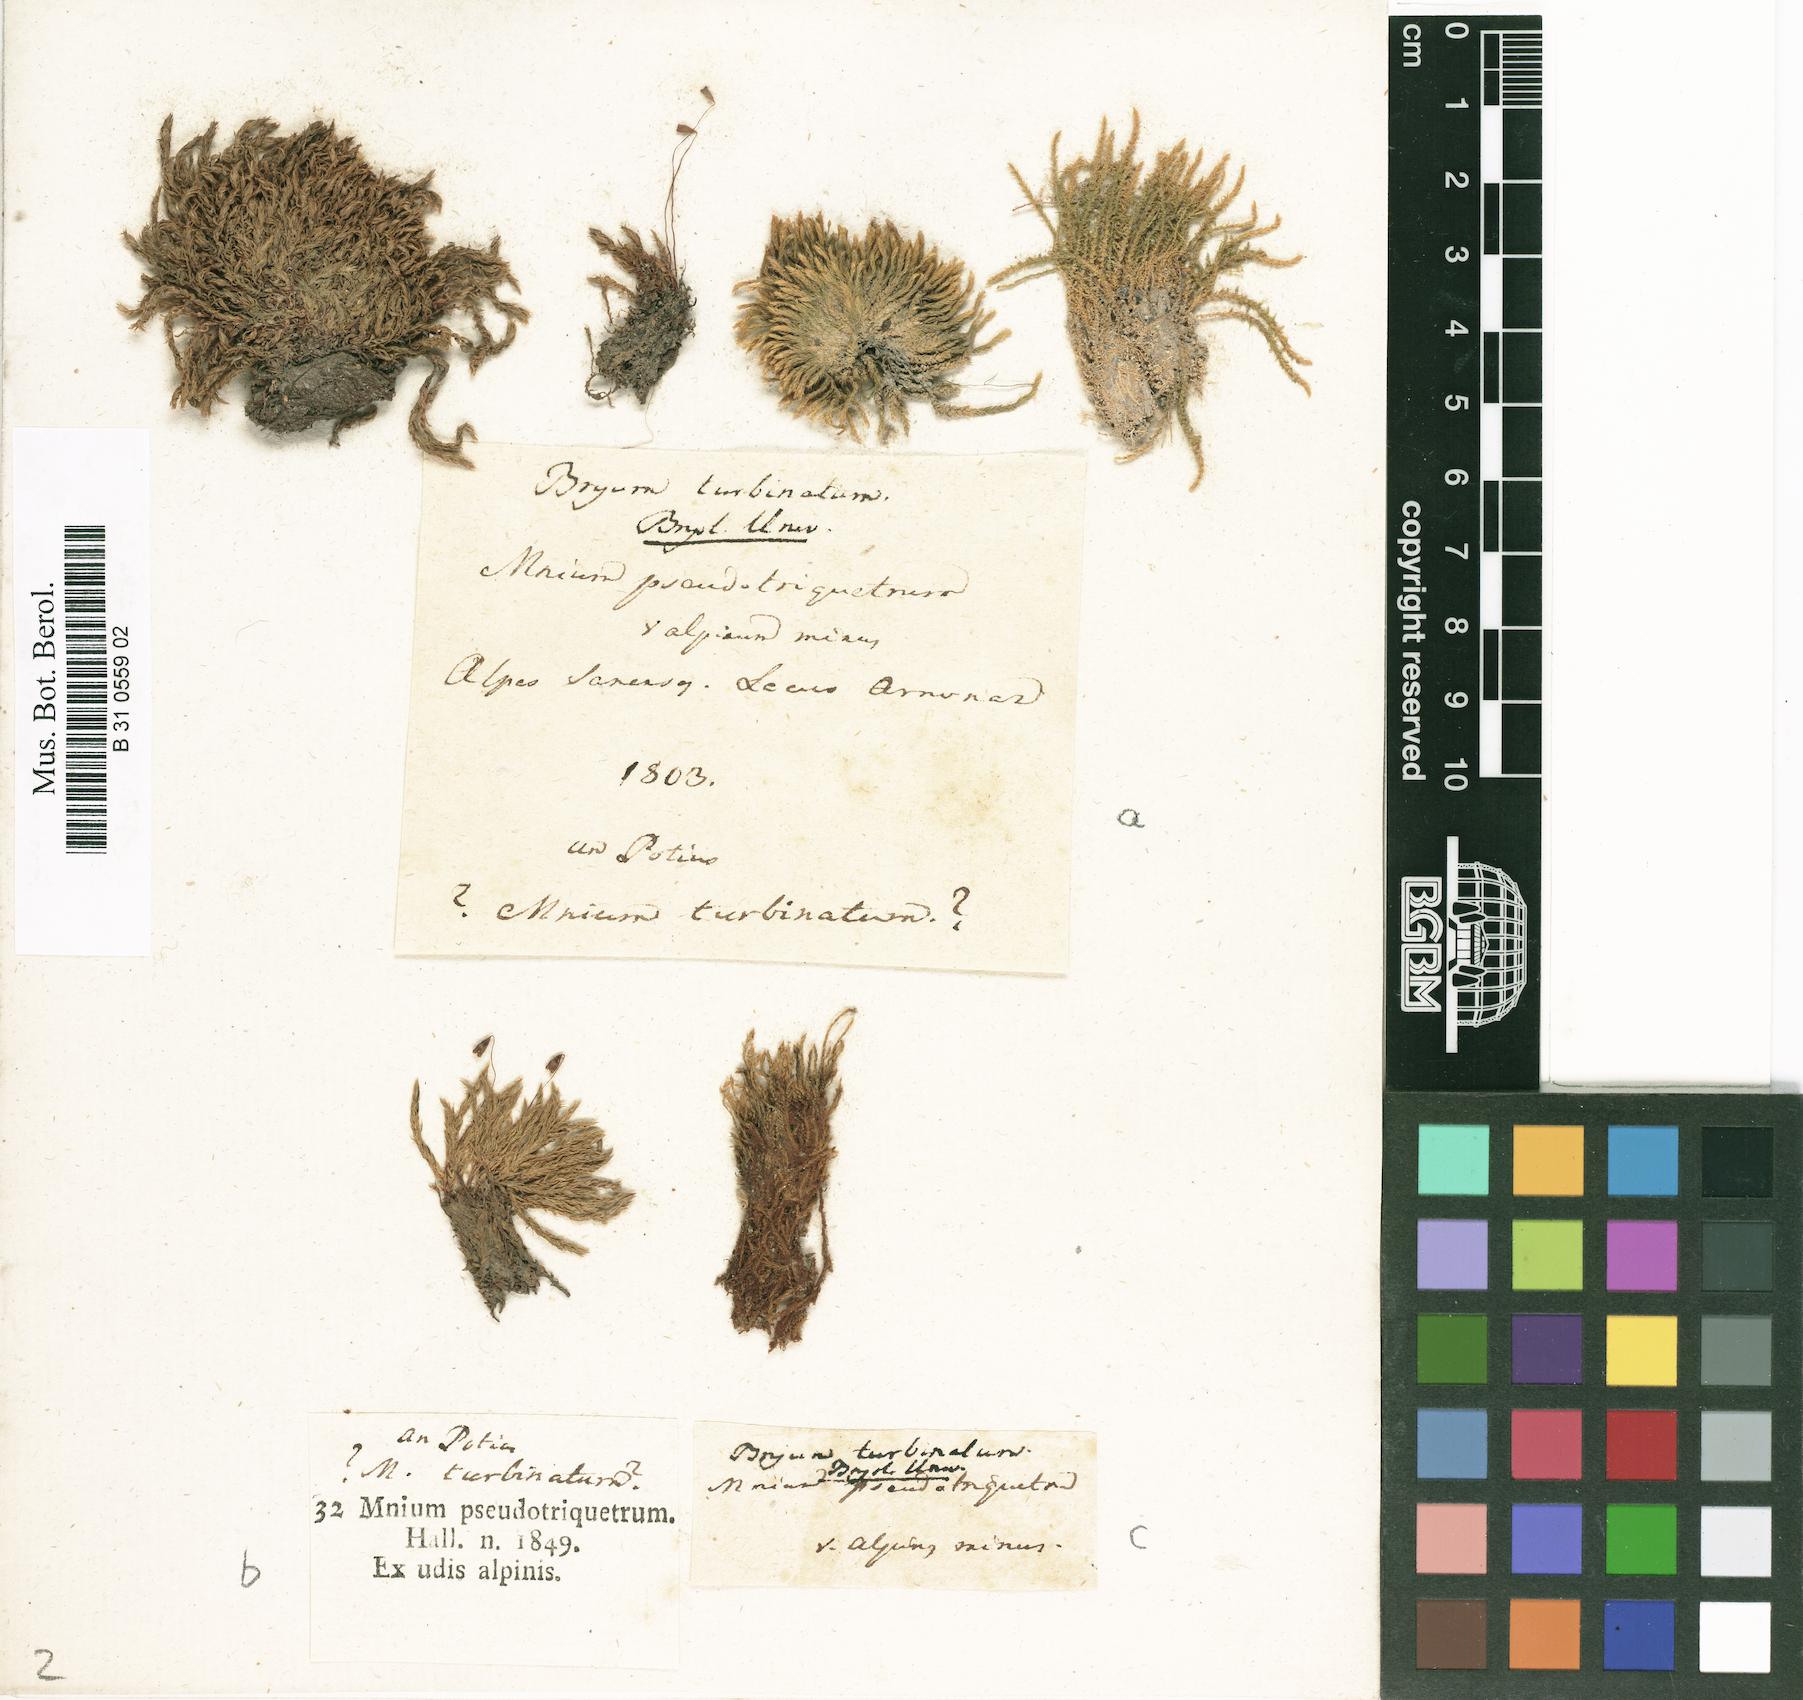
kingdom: Plantae
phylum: Bryophyta
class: Bryopsida
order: Bryales
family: Bryaceae
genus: Ptychostomum
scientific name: Ptychostomum turbinatum
